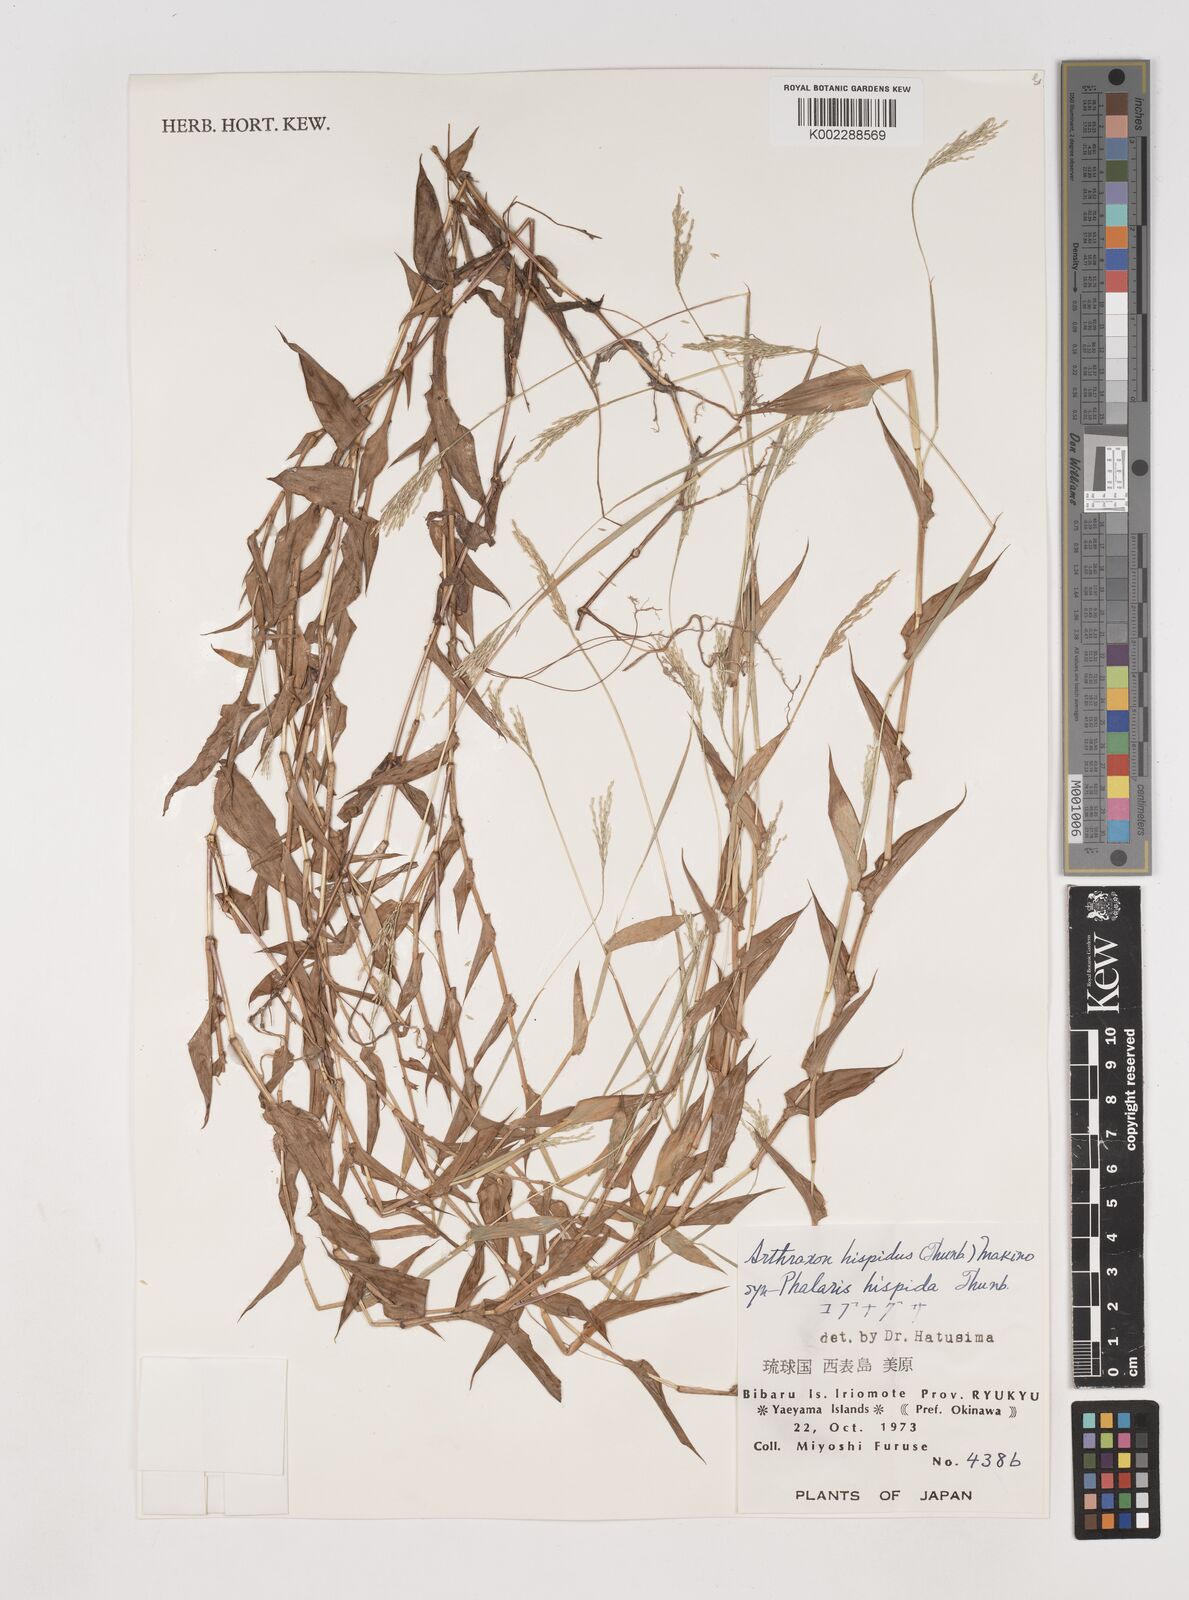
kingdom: Plantae
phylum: Tracheophyta
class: Liliopsida
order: Poales
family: Poaceae
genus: Arthraxon
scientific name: Arthraxon hispidus
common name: Small carpgrass
